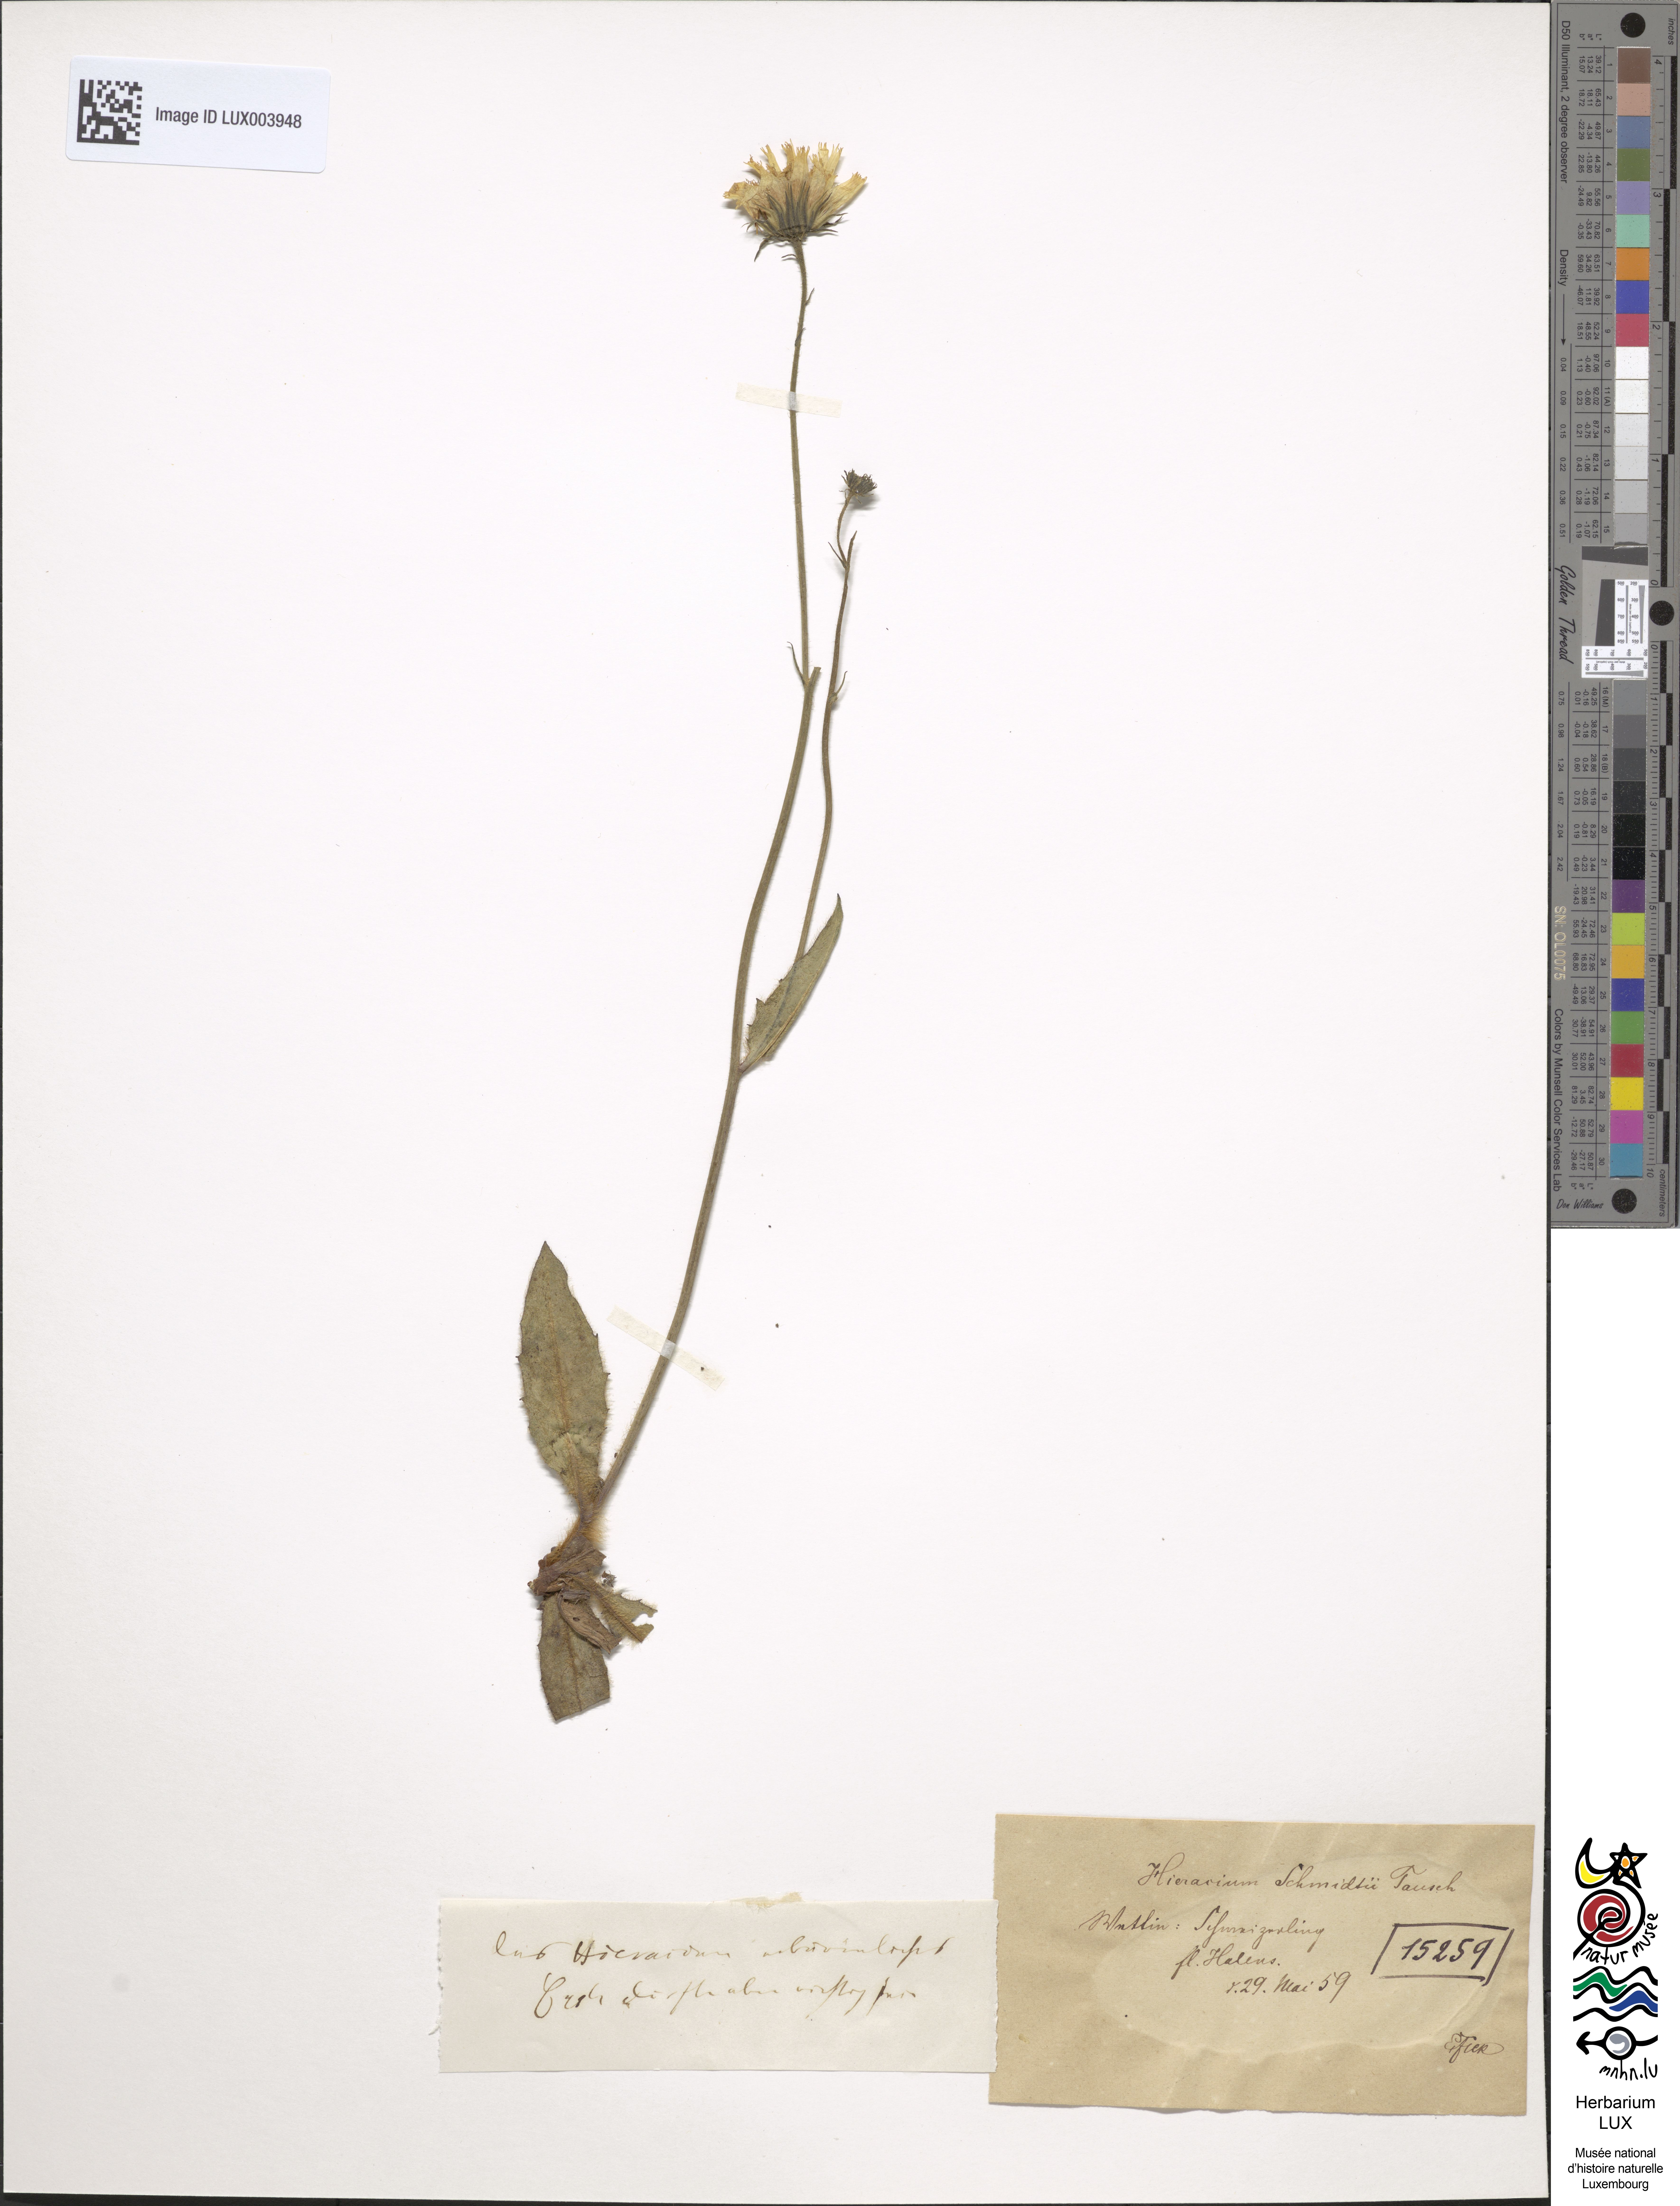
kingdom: Plantae
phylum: Tracheophyta
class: Magnoliopsida
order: Asterales
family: Asteraceae
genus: Hieracium
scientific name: Hieracium schmidtii
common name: Schmidt's hawkweed
